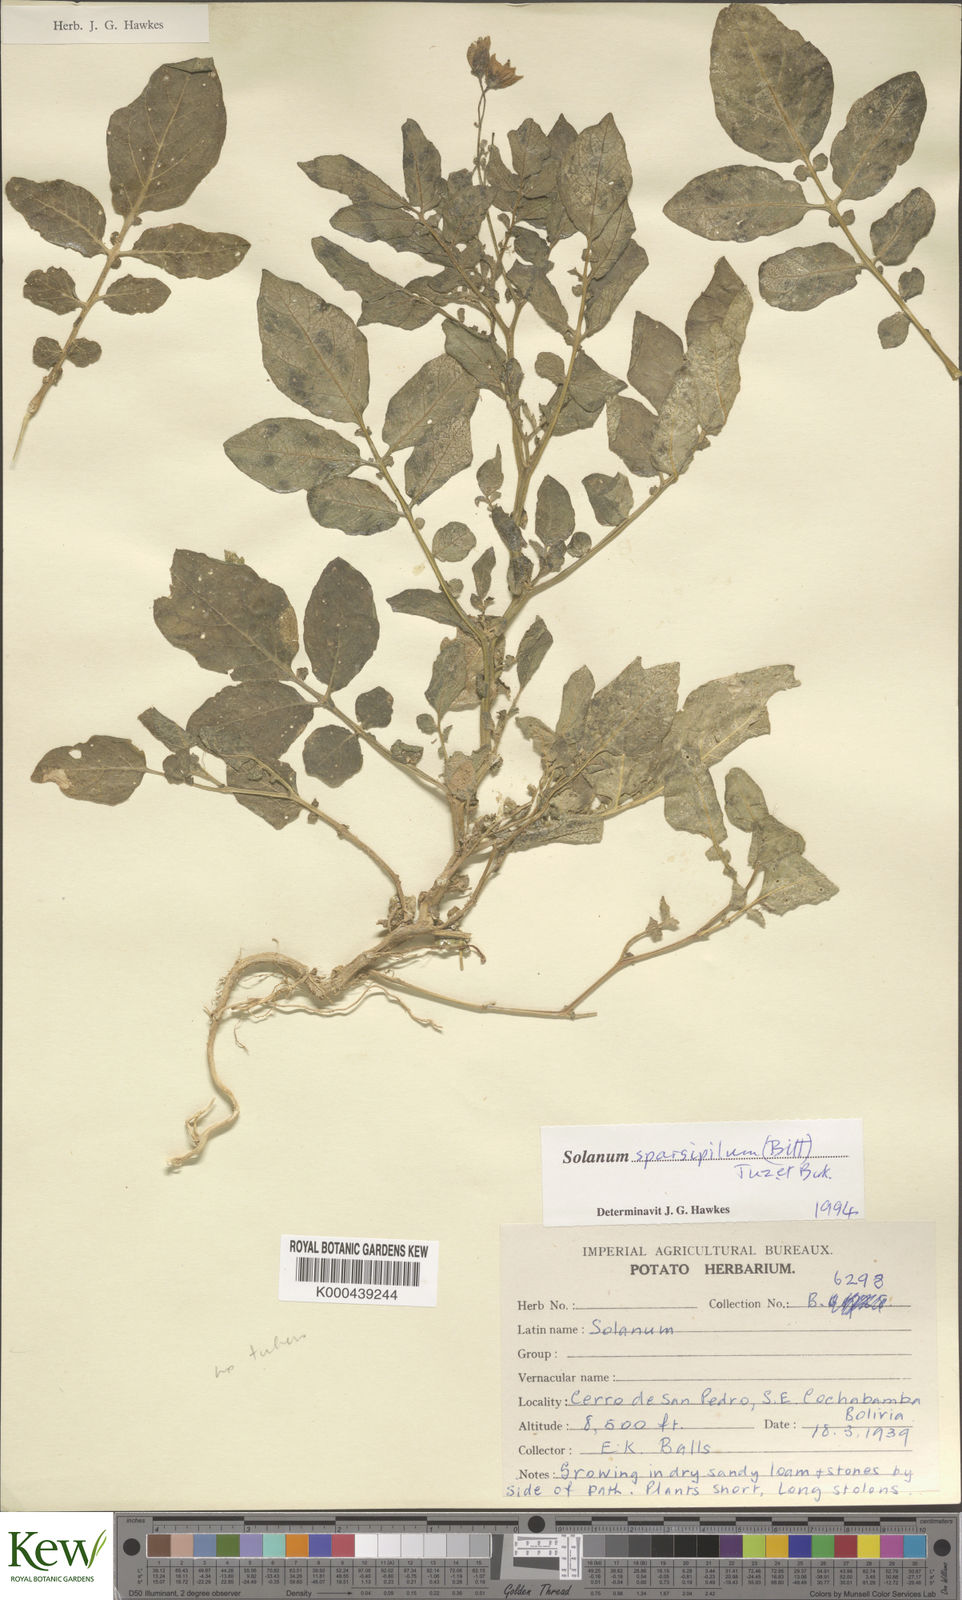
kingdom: Plantae
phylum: Tracheophyta
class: Magnoliopsida
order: Solanales
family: Solanaceae
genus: Solanum
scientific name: Solanum brevicaule
